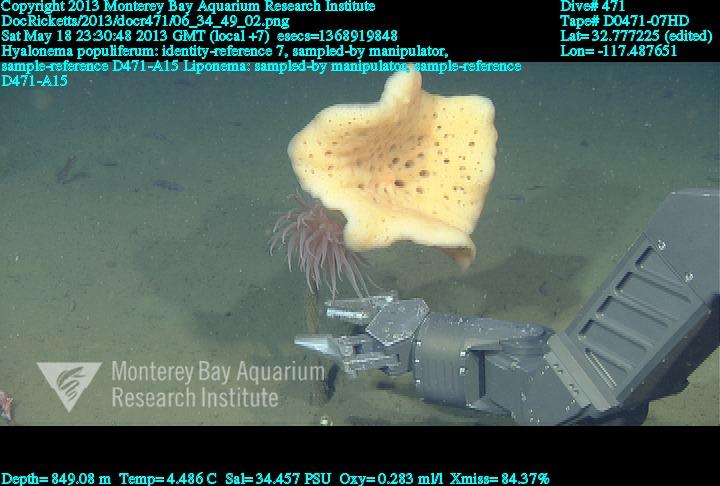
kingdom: Animalia
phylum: Porifera
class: Hexactinellida
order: Amphidiscosida
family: Hyalonematidae
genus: Hyalonema
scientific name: Hyalonema populiferum
